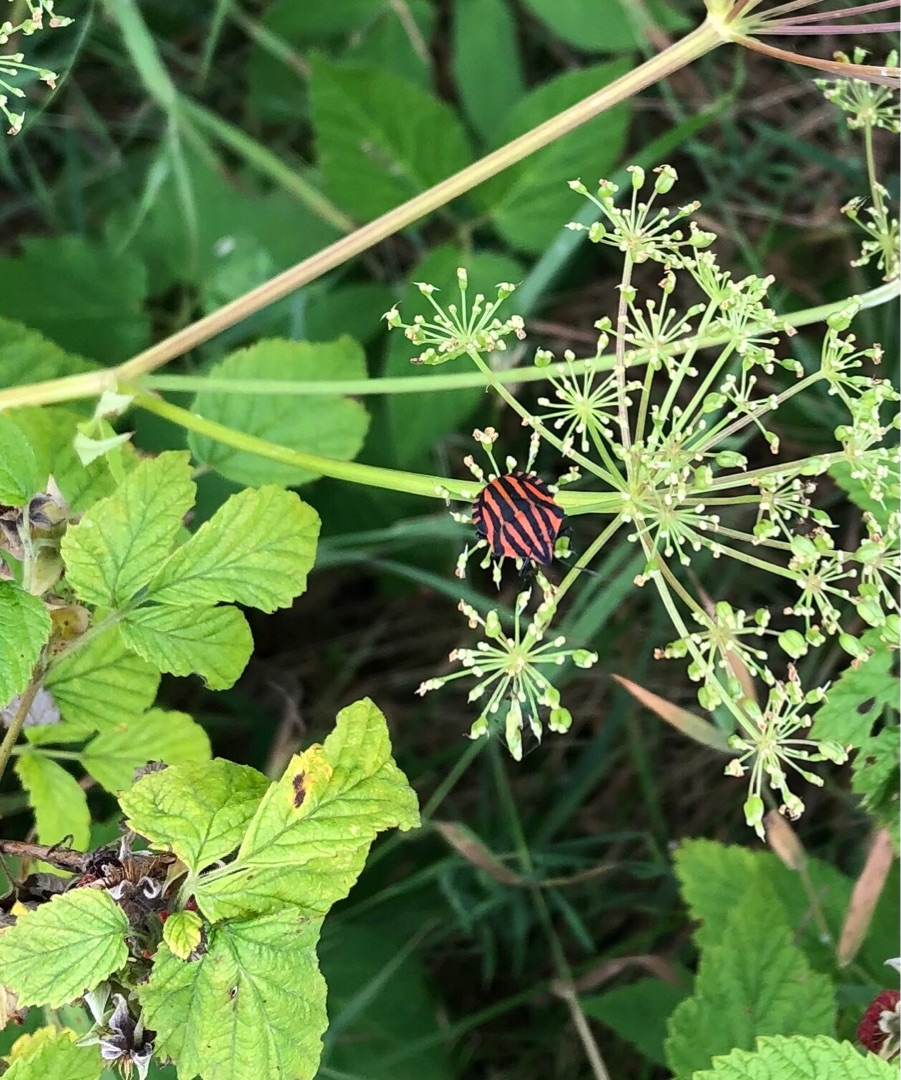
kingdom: Animalia
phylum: Arthropoda
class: Insecta
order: Hemiptera
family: Pentatomidae
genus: Graphosoma
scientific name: Graphosoma italicum
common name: Stribetæge
